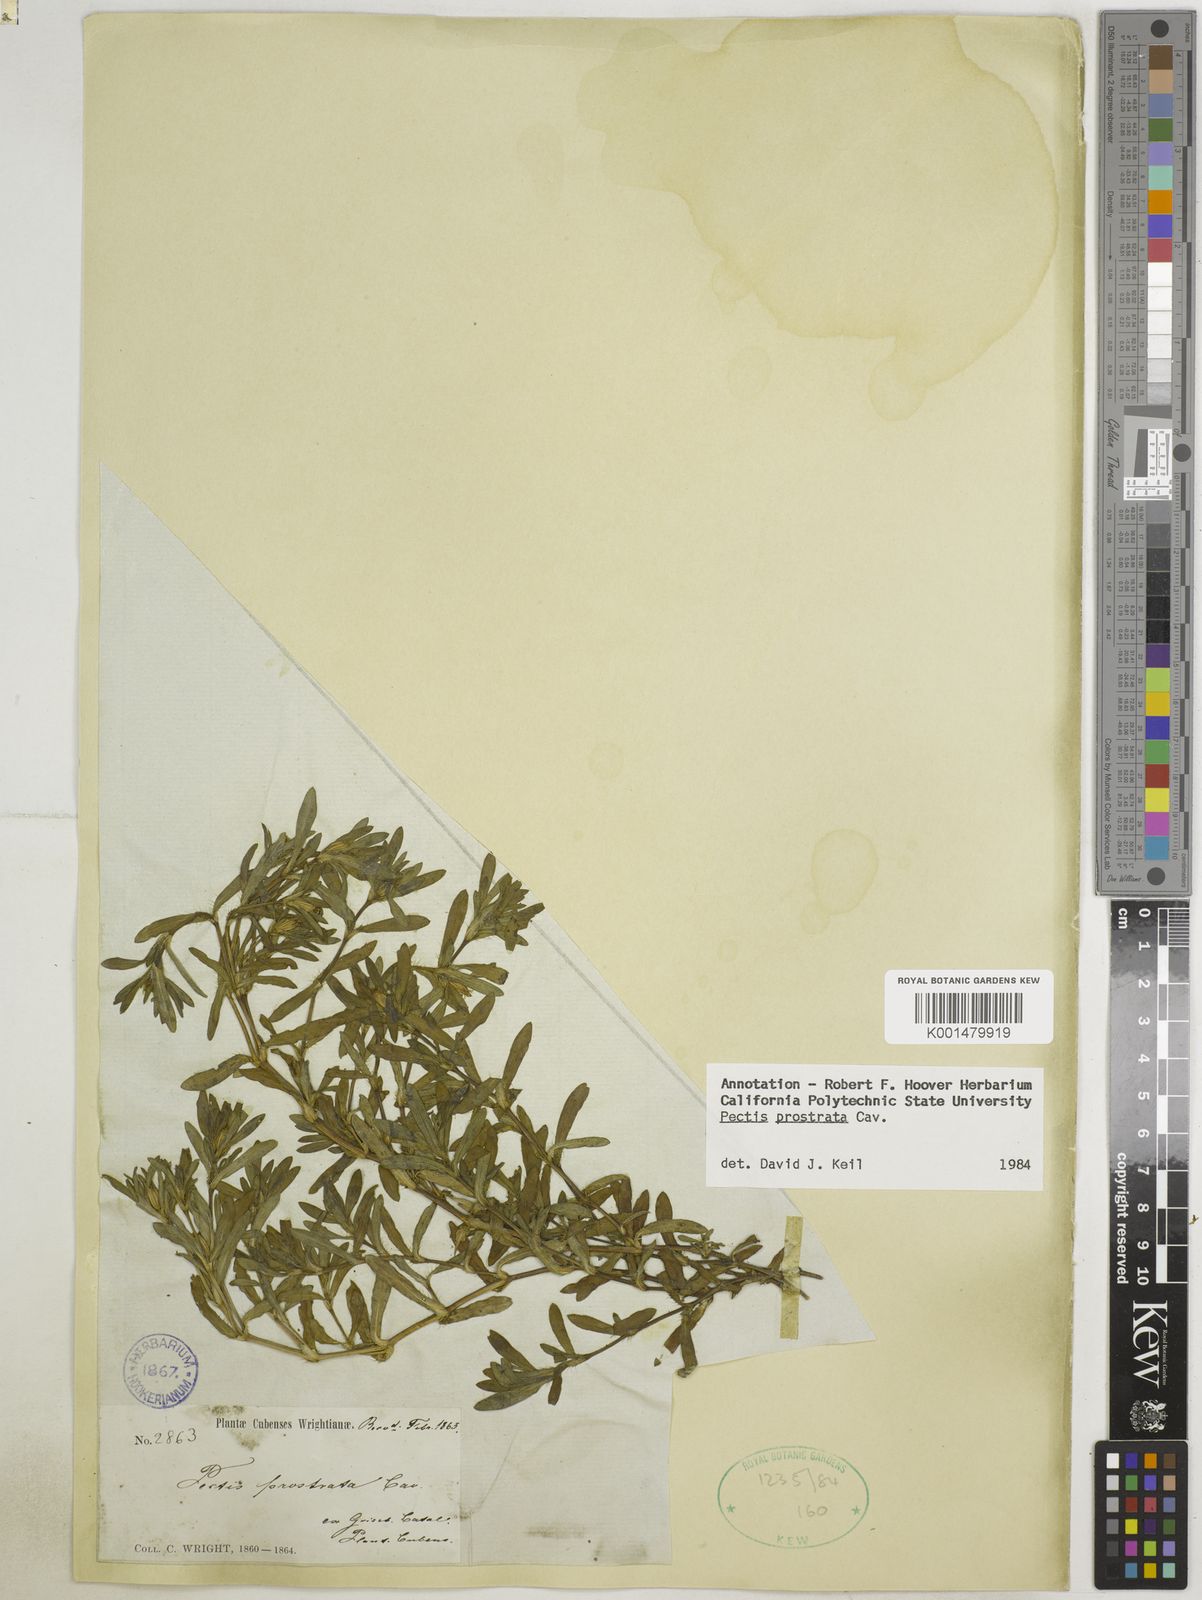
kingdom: Plantae
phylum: Tracheophyta
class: Magnoliopsida
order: Asterales
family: Asteraceae
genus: Pectis
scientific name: Pectis prostrata
